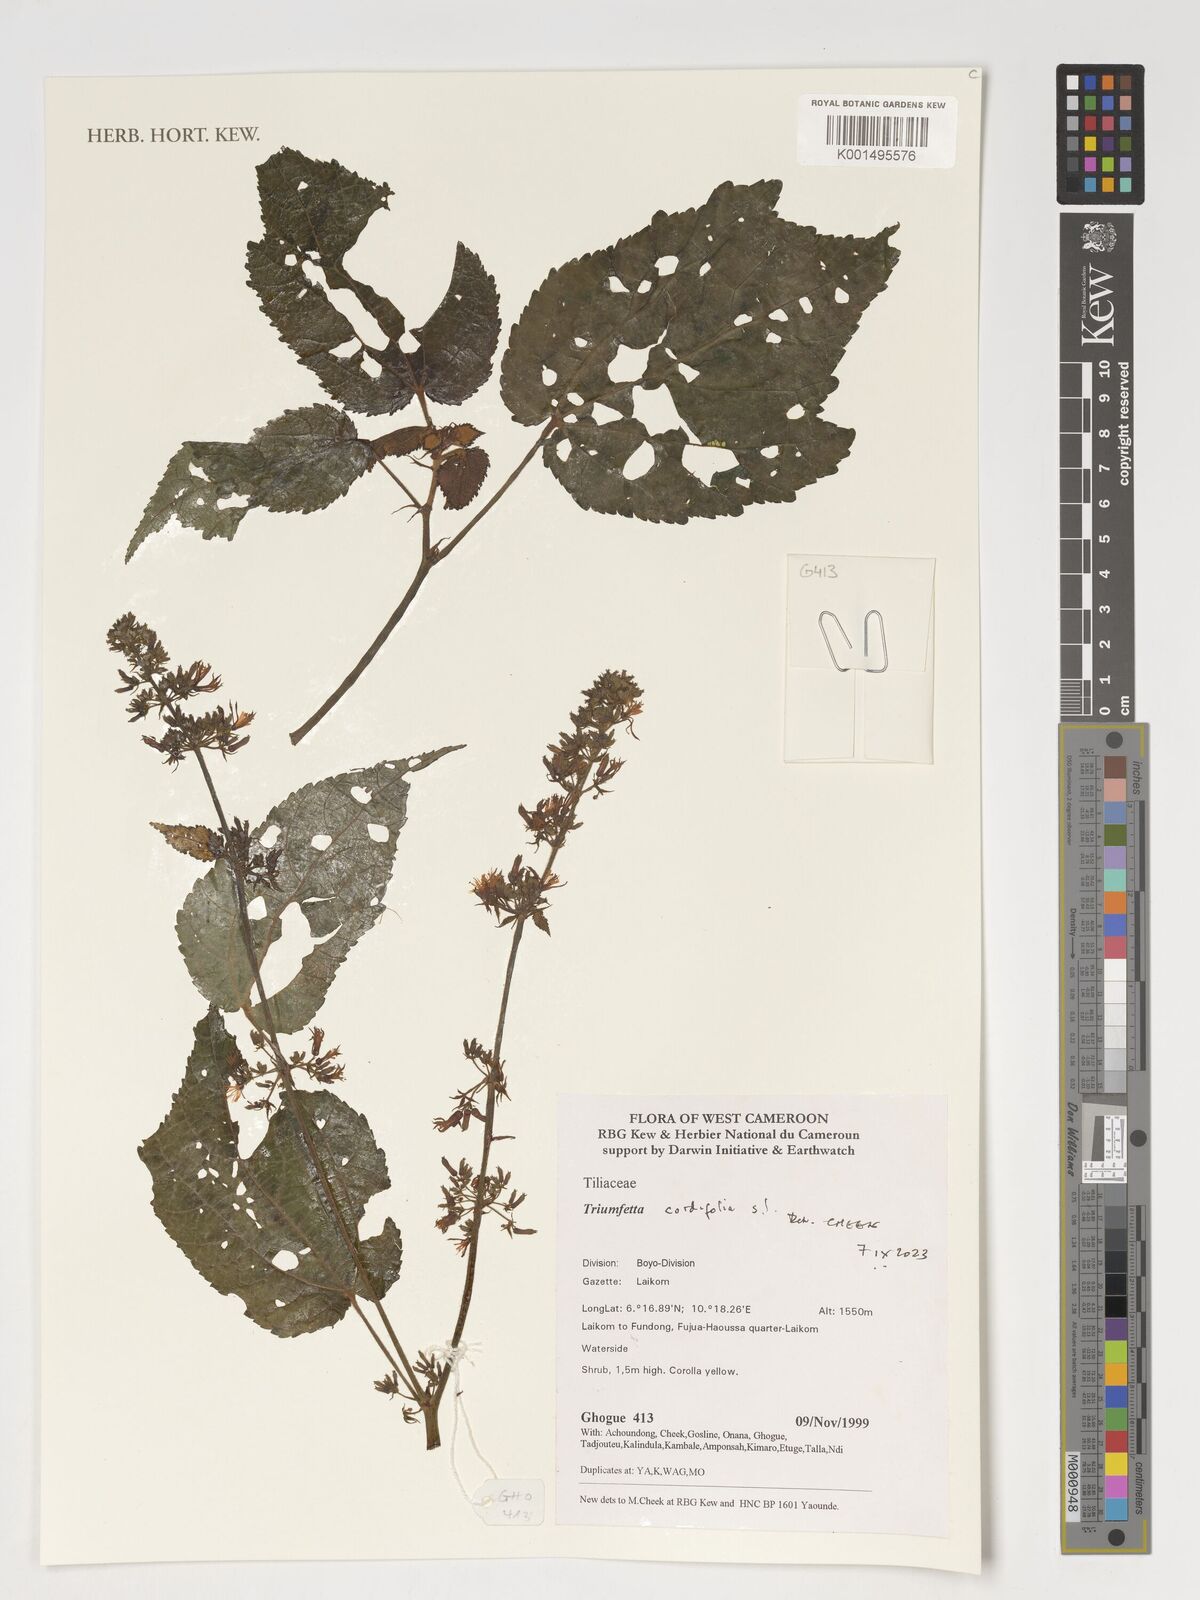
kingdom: Plantae
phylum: Tracheophyta
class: Magnoliopsida
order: Malvales
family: Malvaceae
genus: Triumfetta
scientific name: Triumfetta
